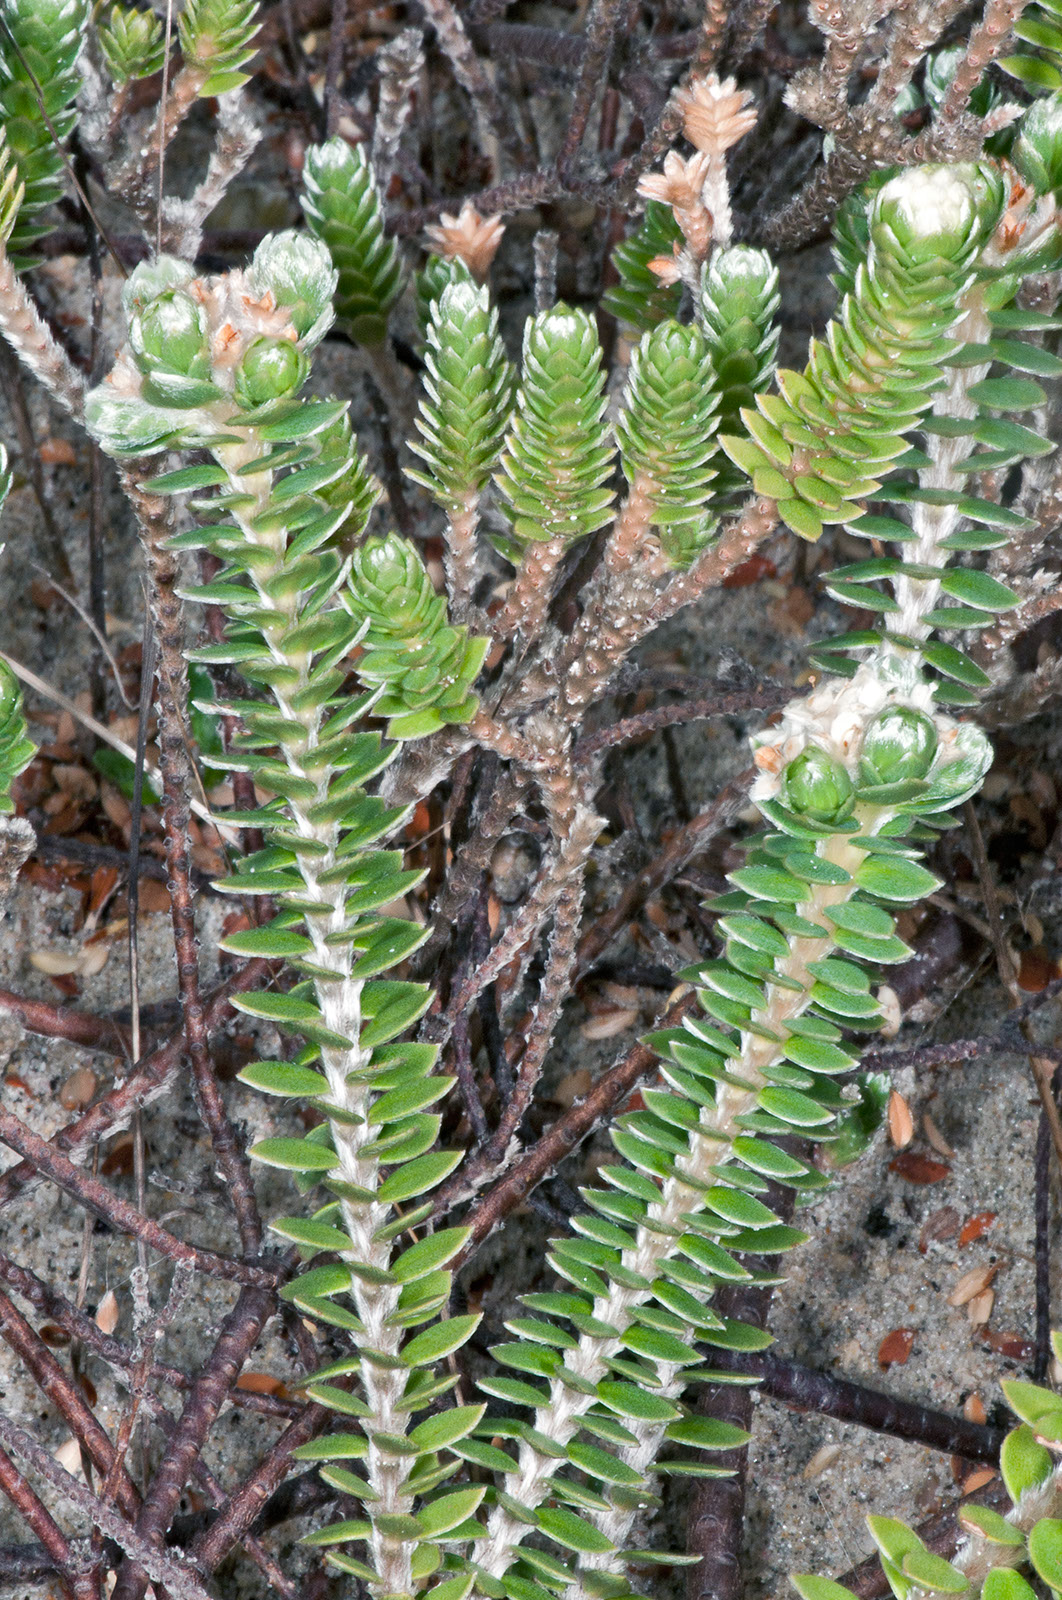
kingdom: Plantae
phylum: Tracheophyta
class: Magnoliopsida
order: Malvales
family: Thymelaeaceae
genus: Pimelea
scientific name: Pimelea villosa
